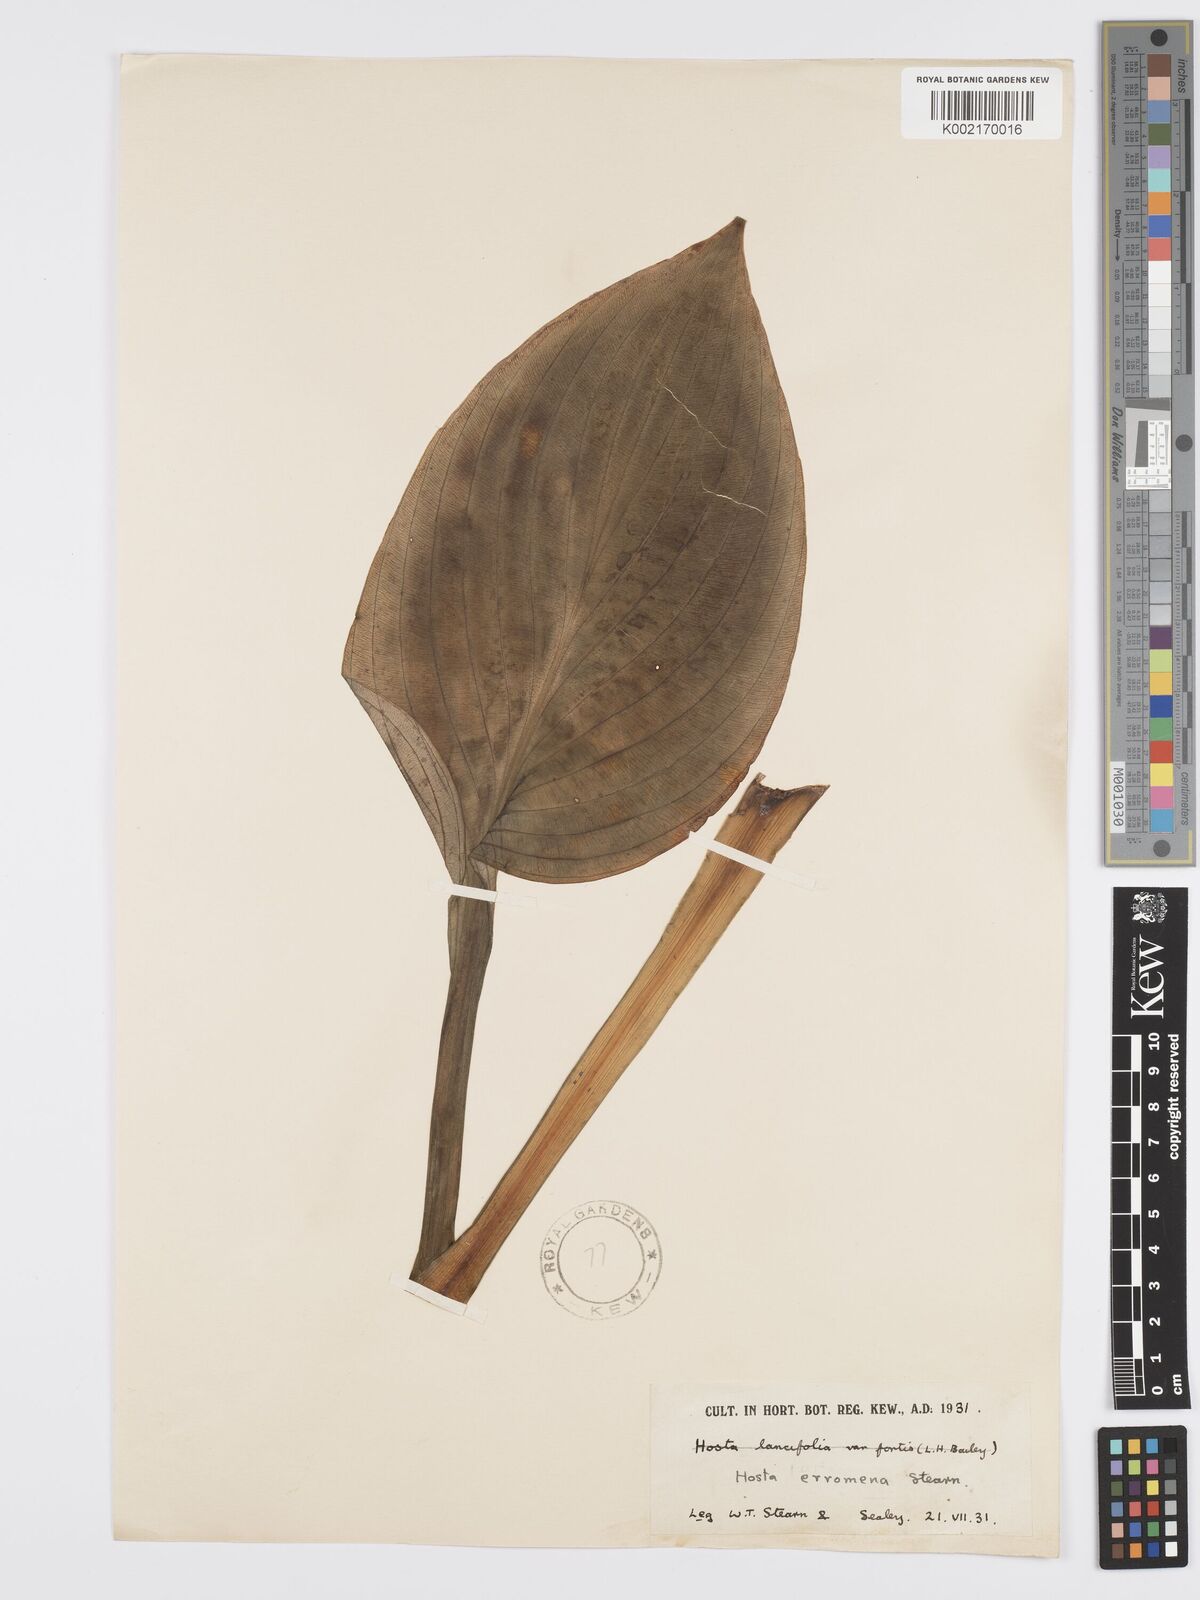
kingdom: Plantae
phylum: Tracheophyta
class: Liliopsida
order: Asparagales
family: Asparagaceae
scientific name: Asparagaceae
